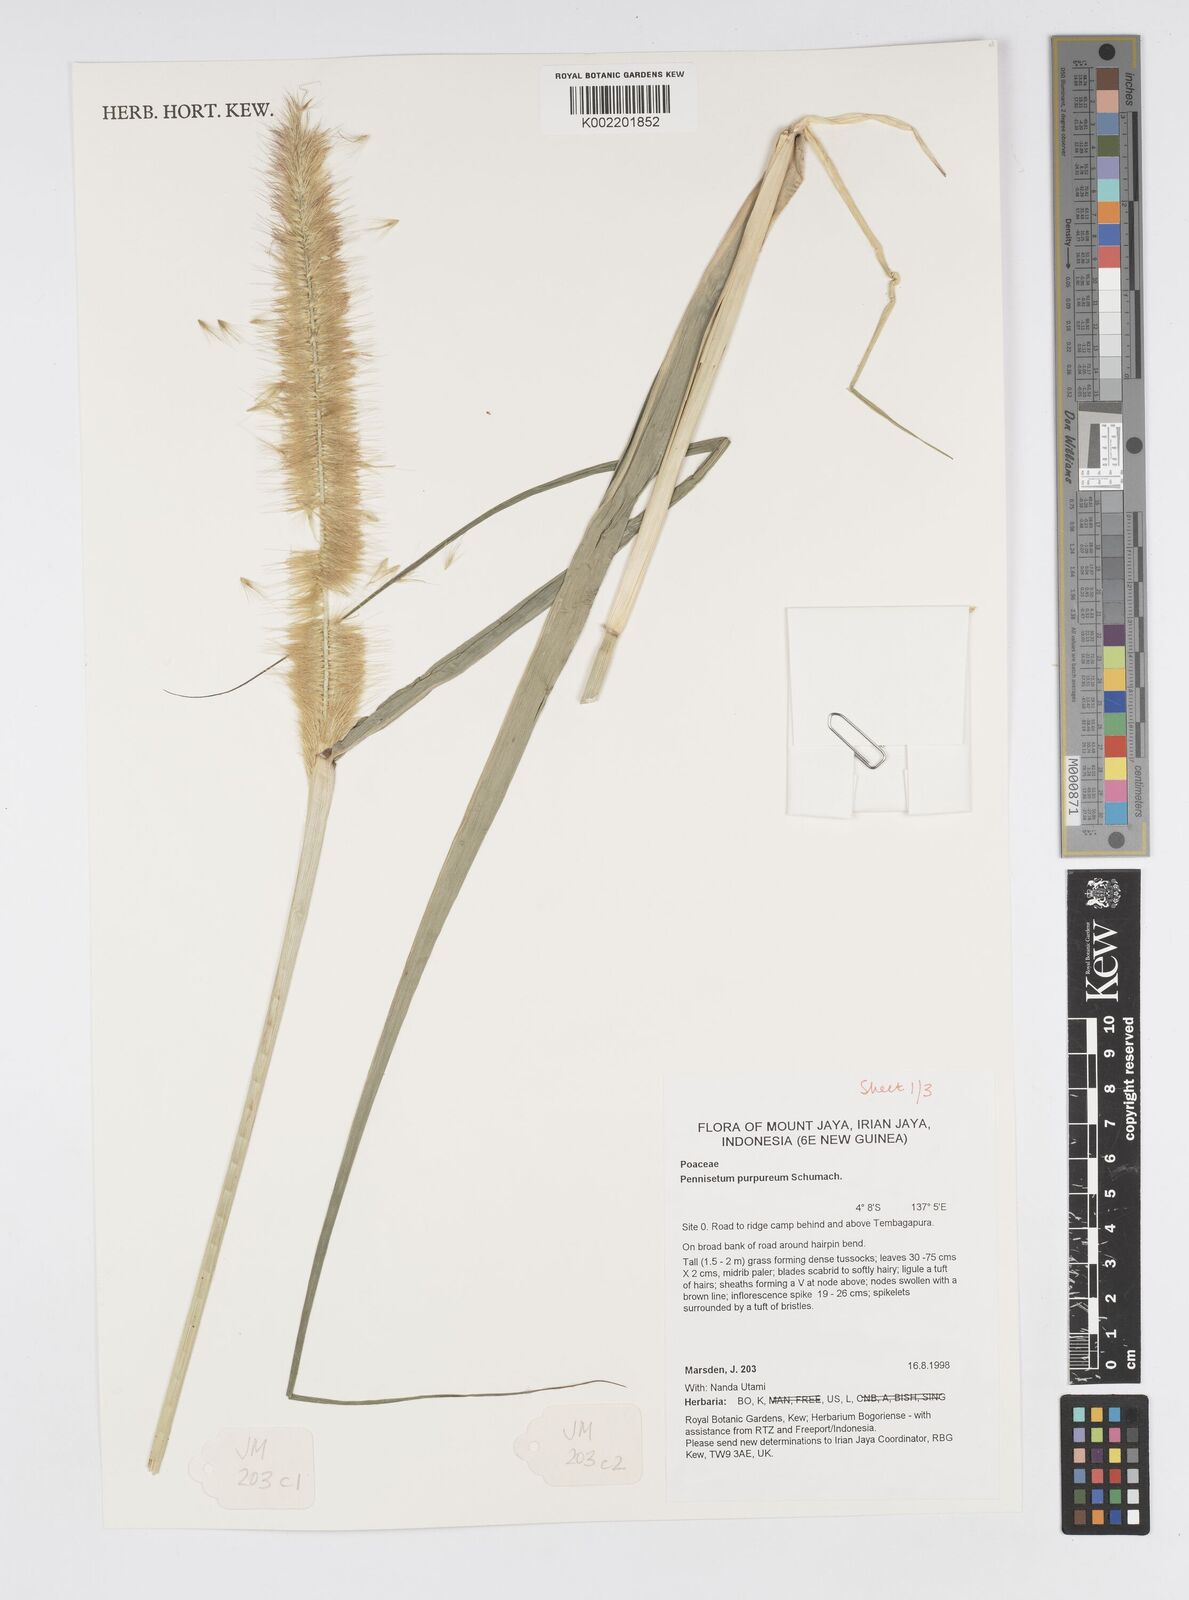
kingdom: Plantae
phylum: Tracheophyta
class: Liliopsida
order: Poales
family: Poaceae
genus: Cenchrus
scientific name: Cenchrus purpureus
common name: Elephant grass
